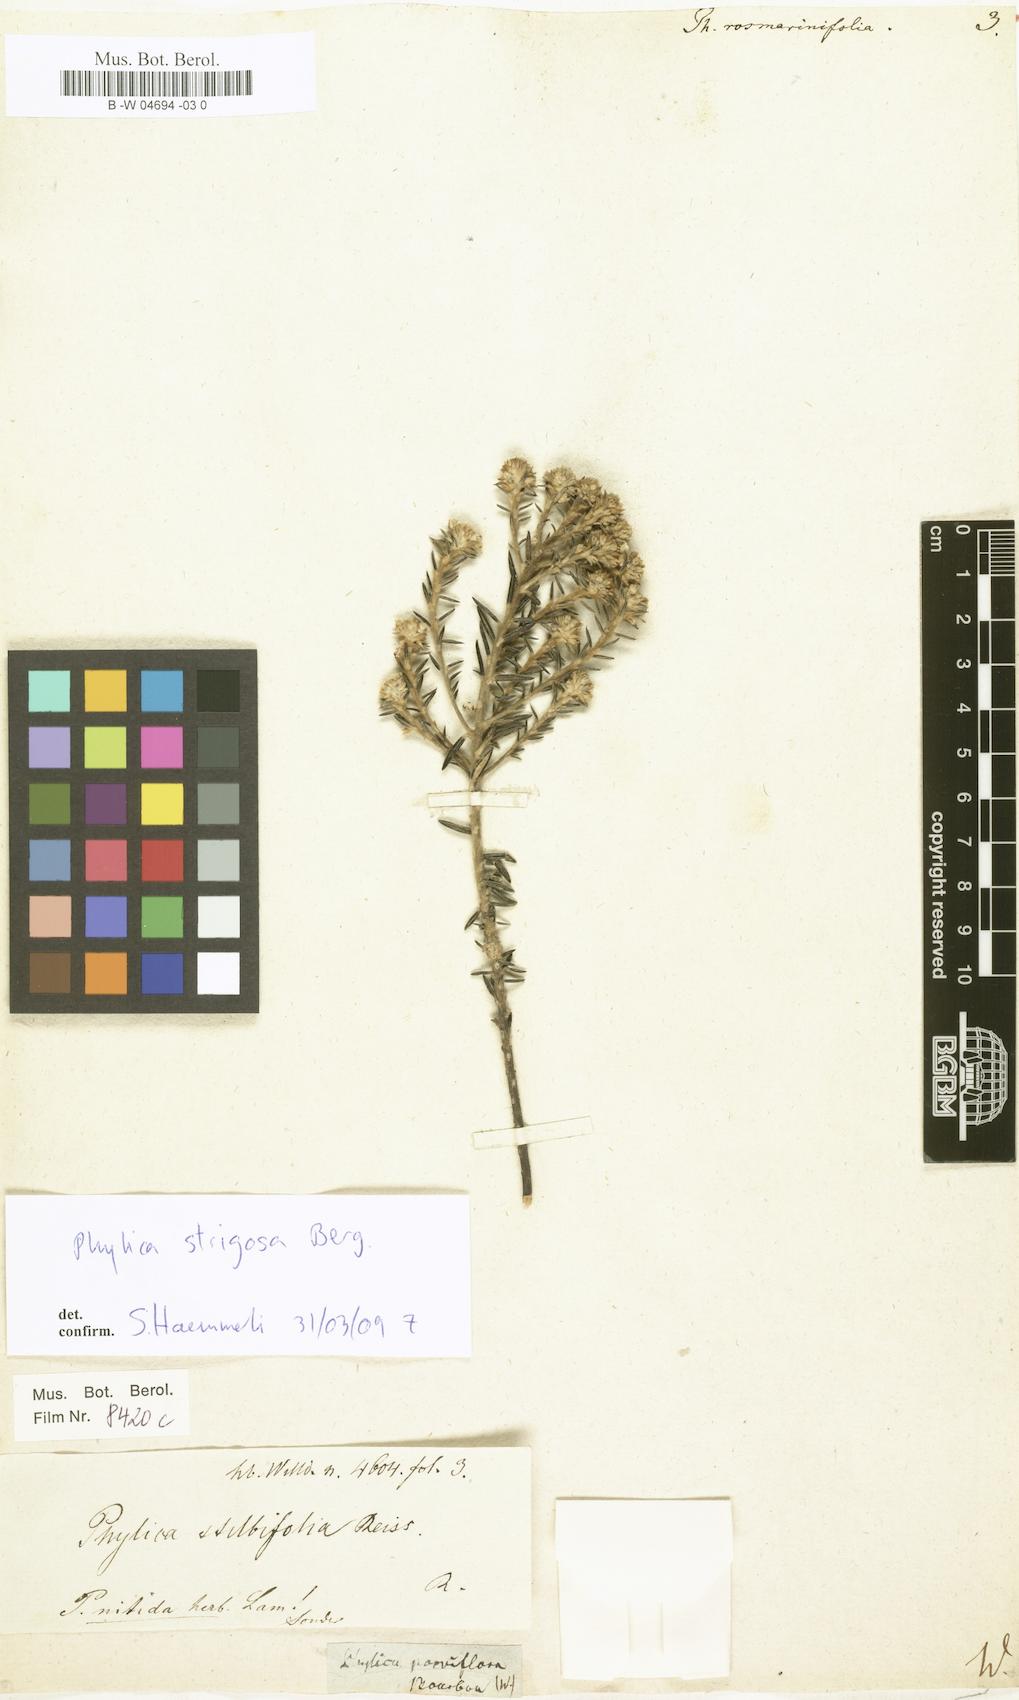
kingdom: Plantae
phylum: Tracheophyta
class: Magnoliopsida
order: Rosales
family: Rhamnaceae
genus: Phylica
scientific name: Phylica
